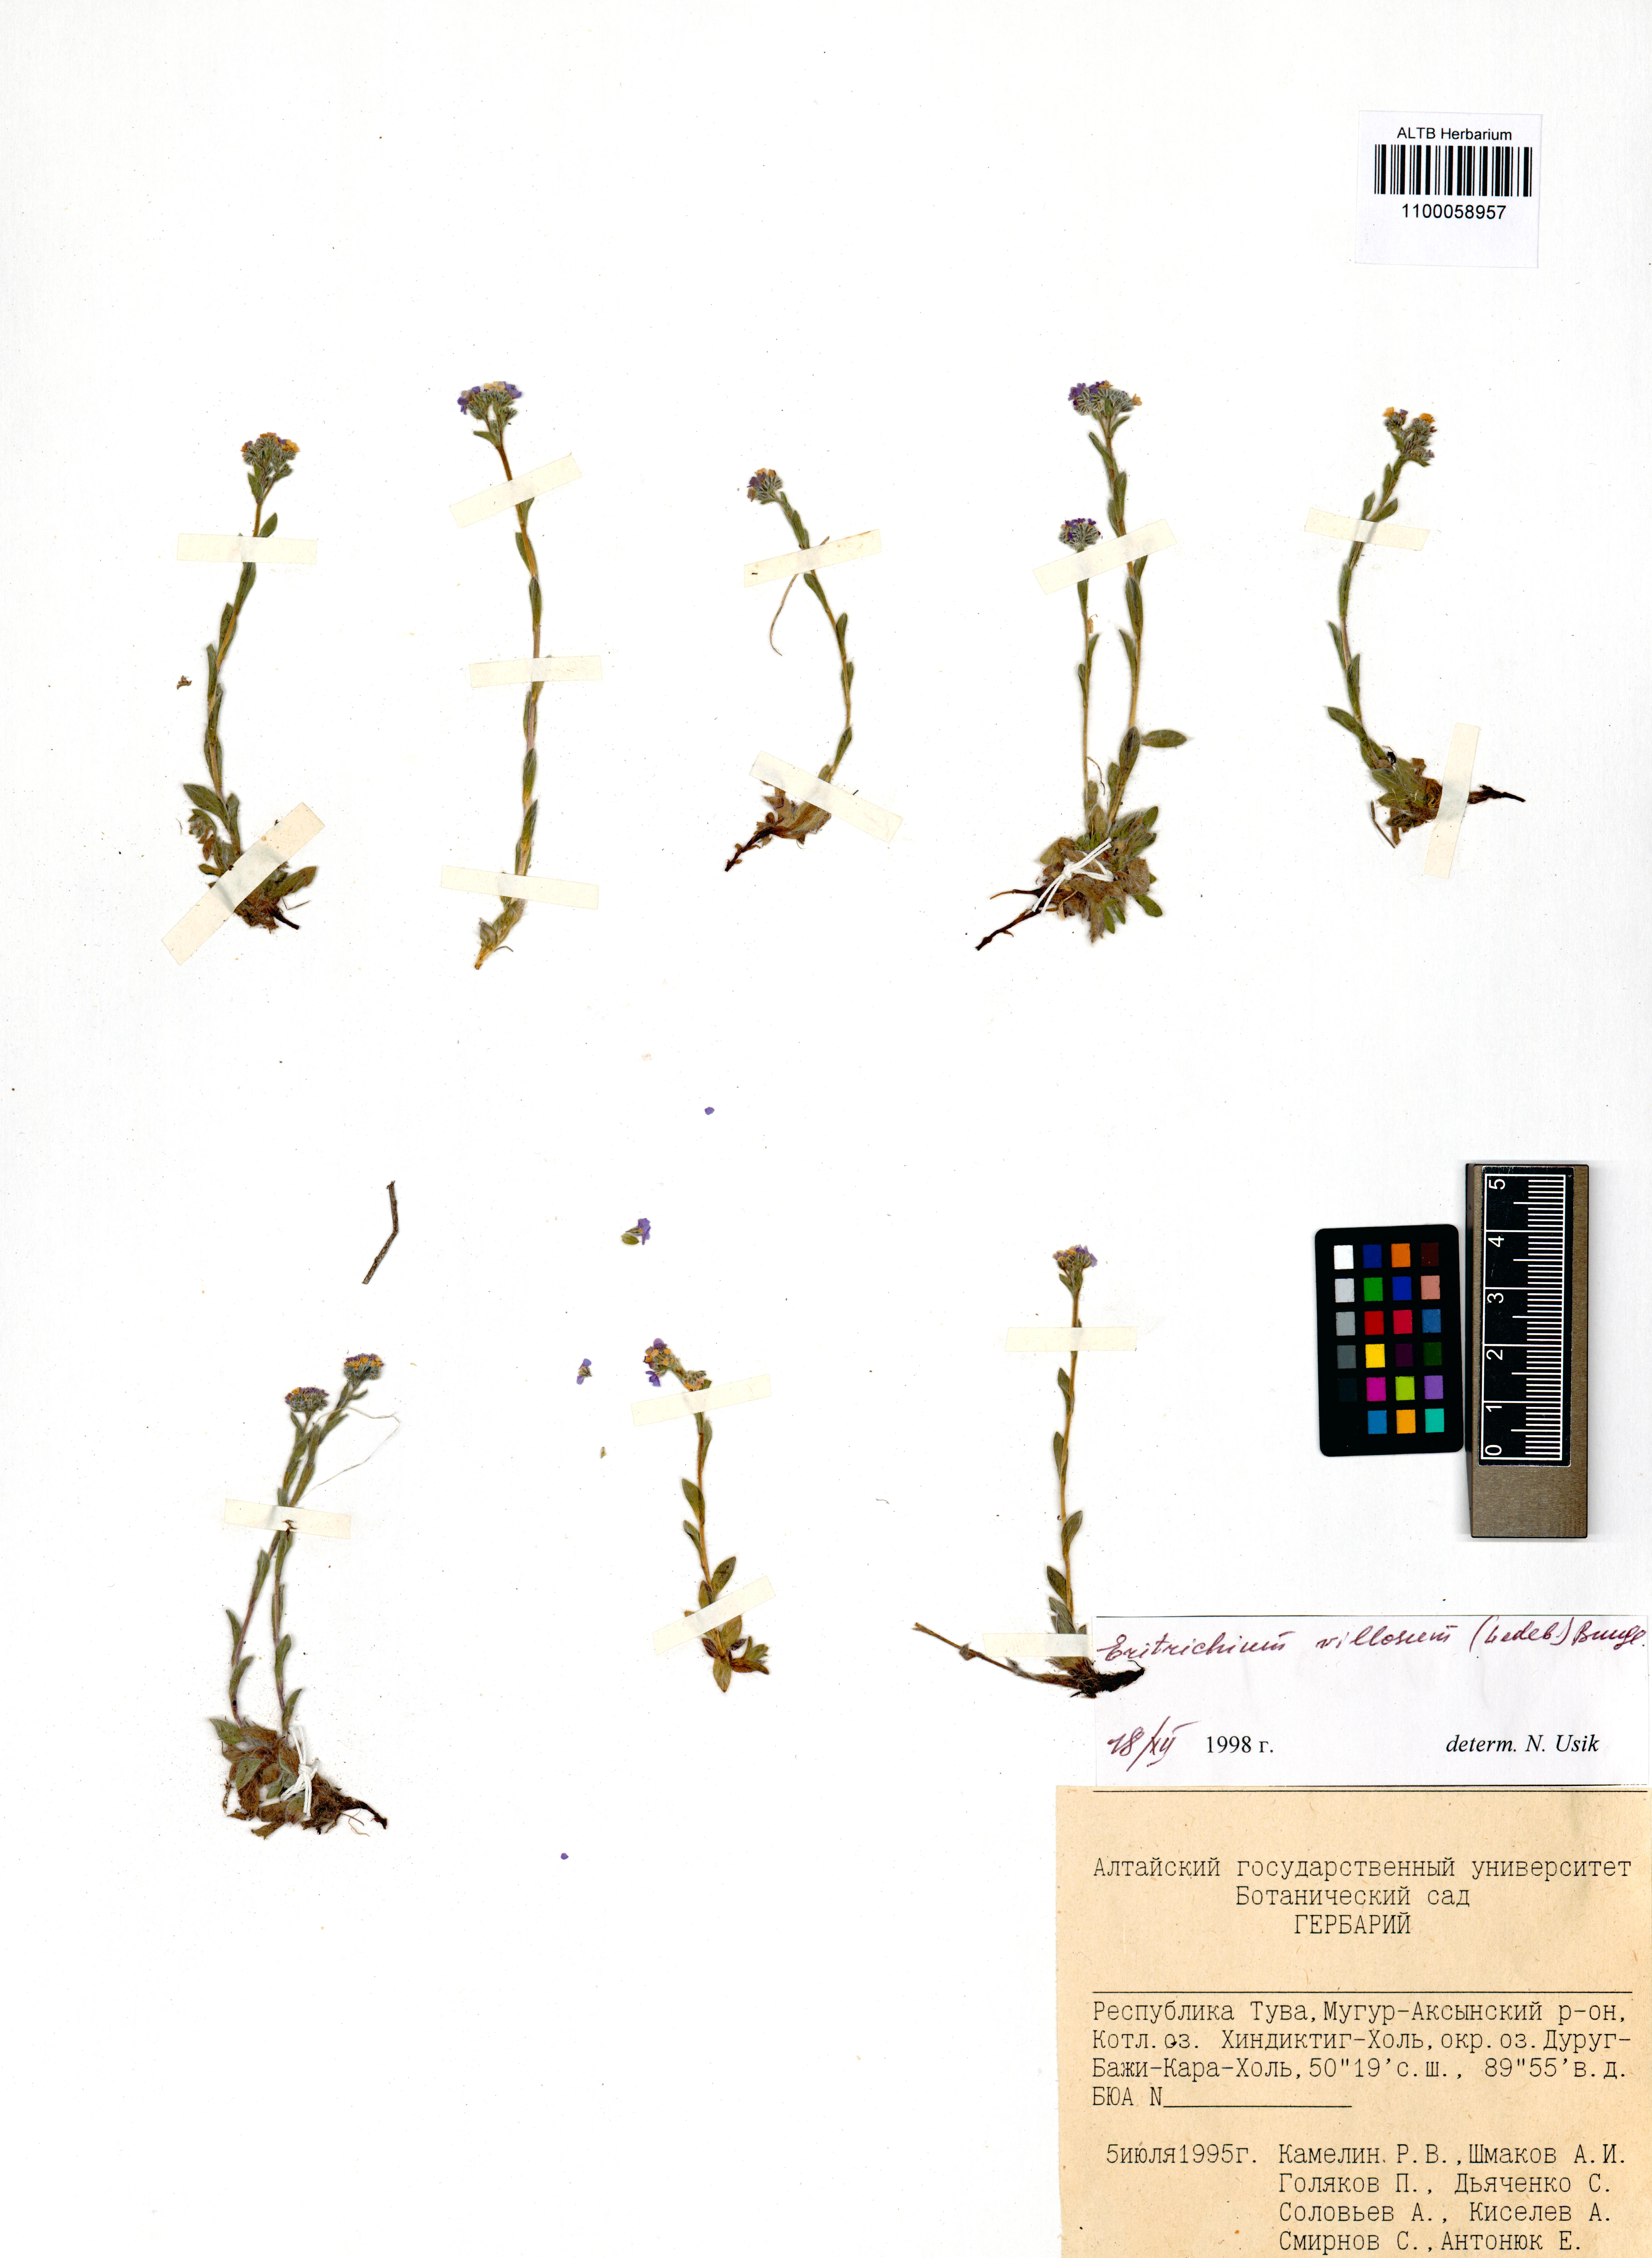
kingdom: Plantae
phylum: Tracheophyta
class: Magnoliopsida
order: Boraginales
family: Boraginaceae
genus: Eritrichium
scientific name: Eritrichium villosum
